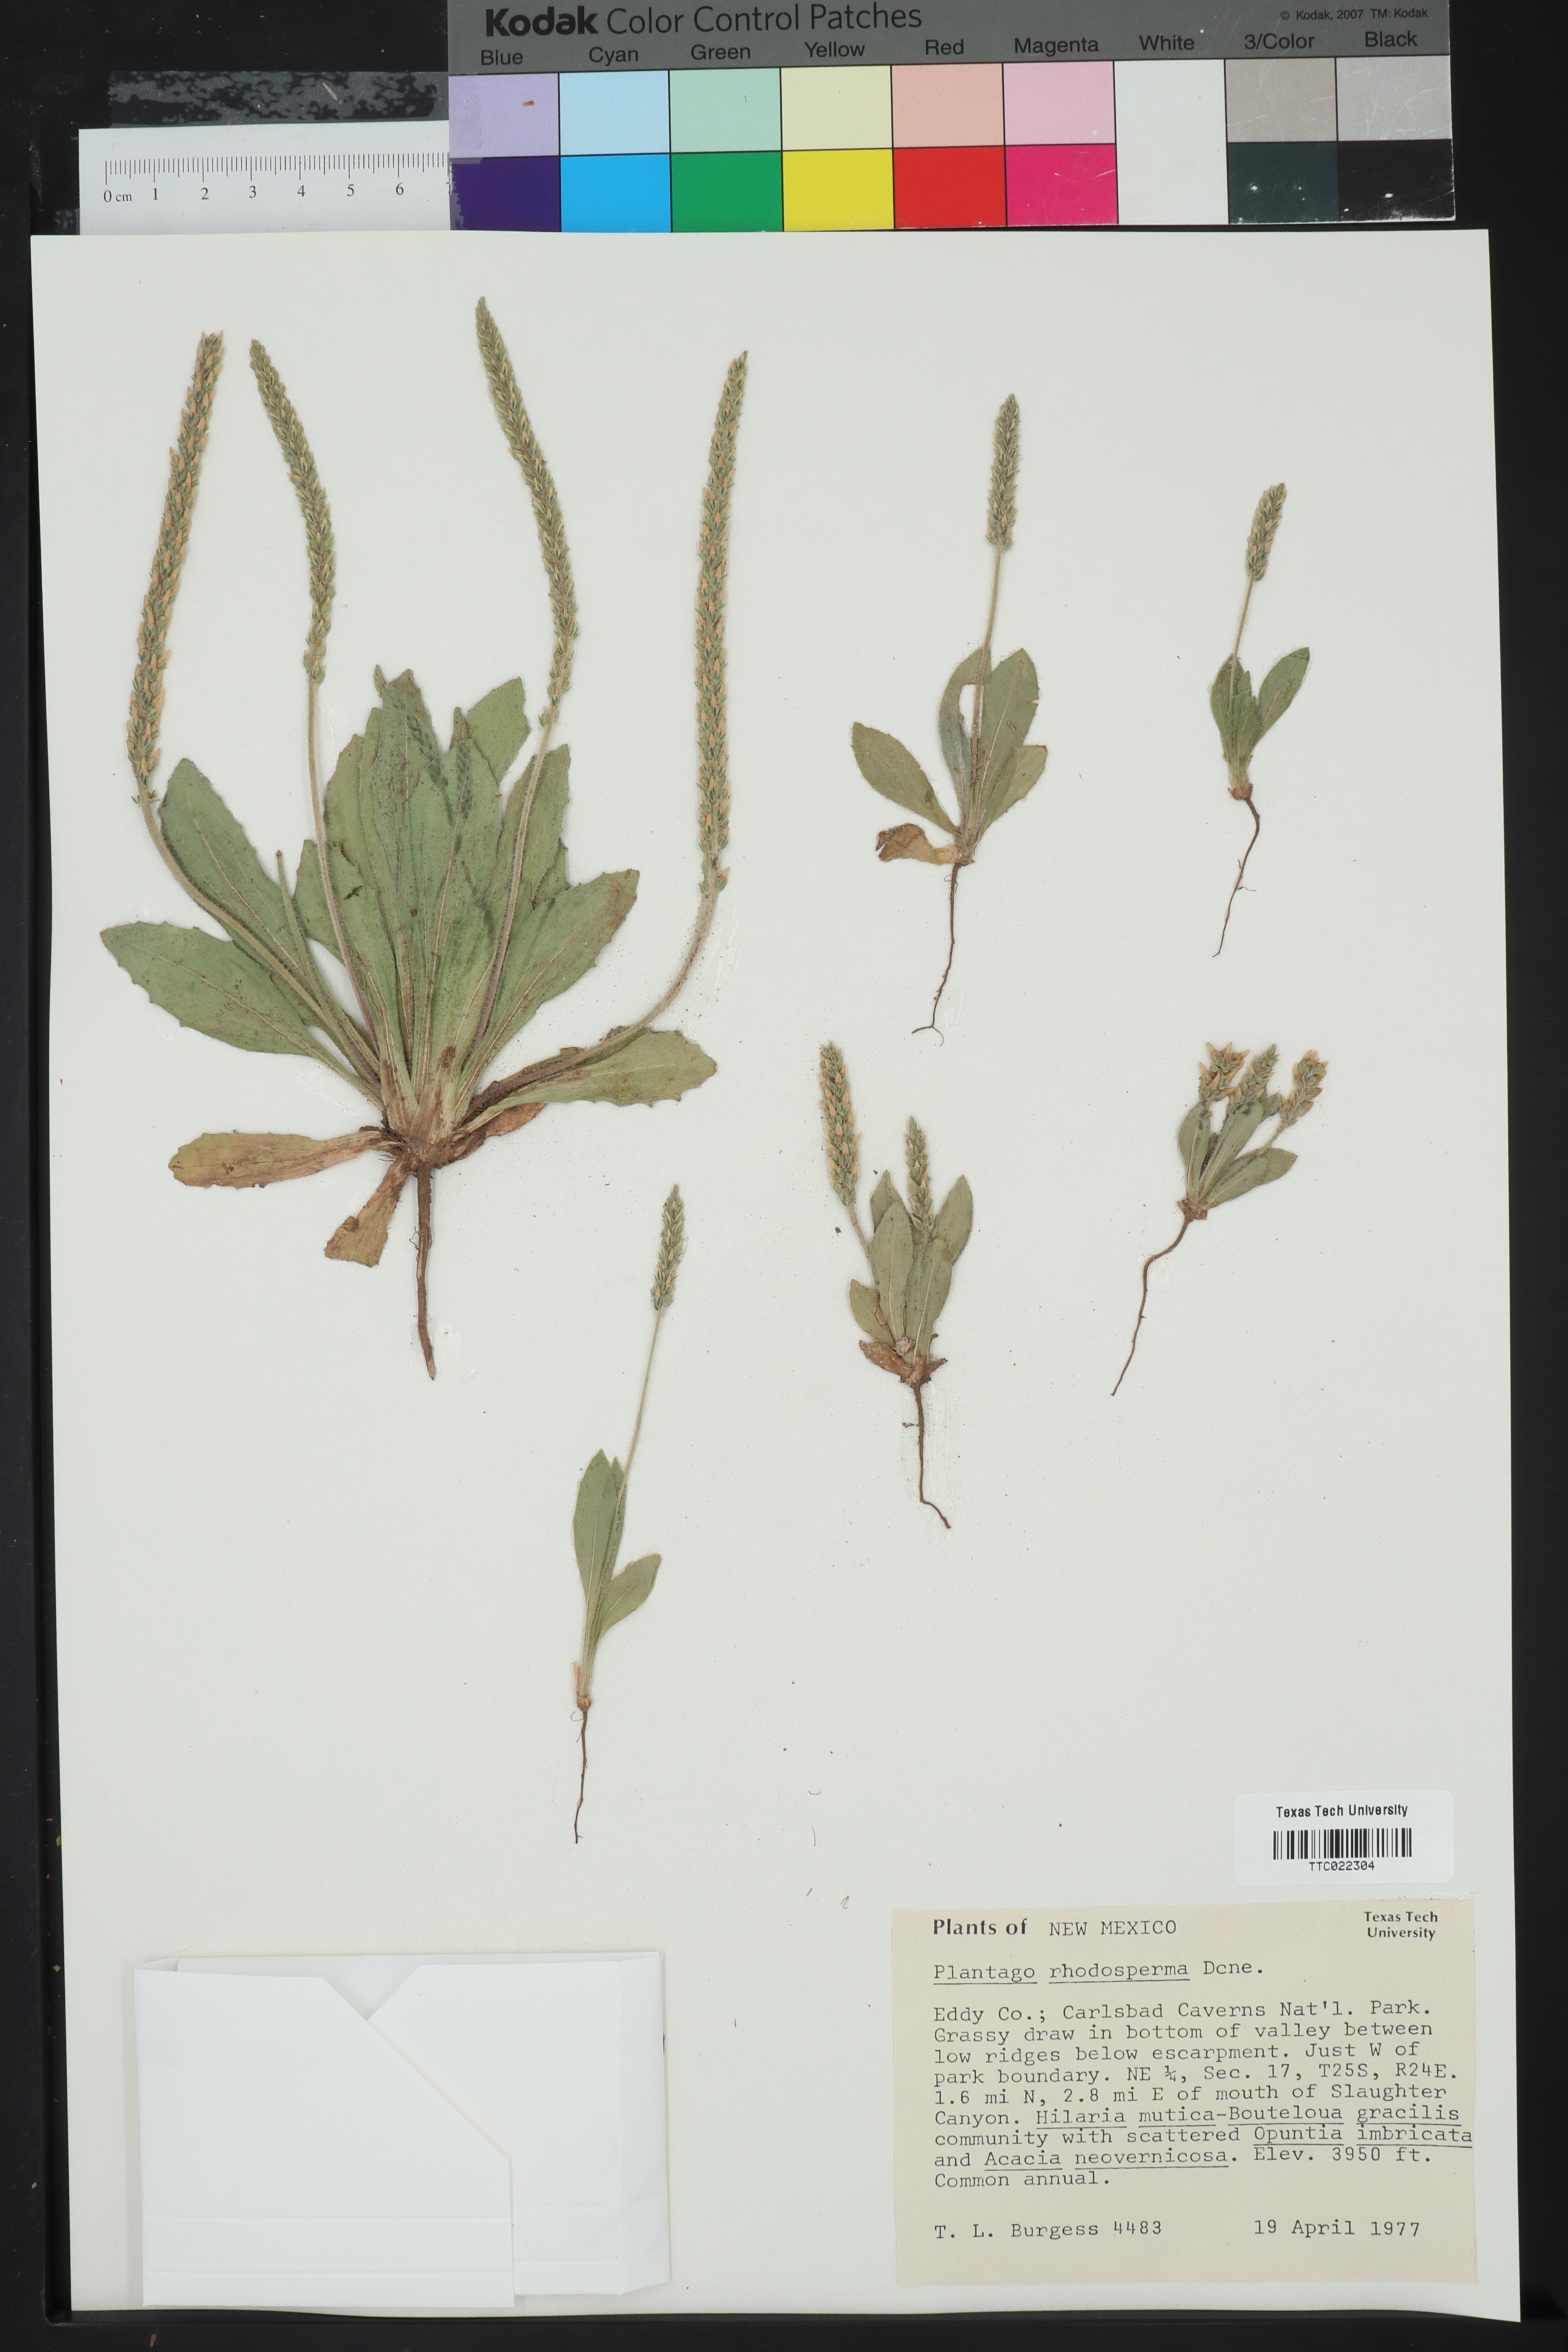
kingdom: Plantae
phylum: Tracheophyta
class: Magnoliopsida
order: Lamiales
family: Plantaginaceae
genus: Plantago
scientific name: Plantago rhodosperma
